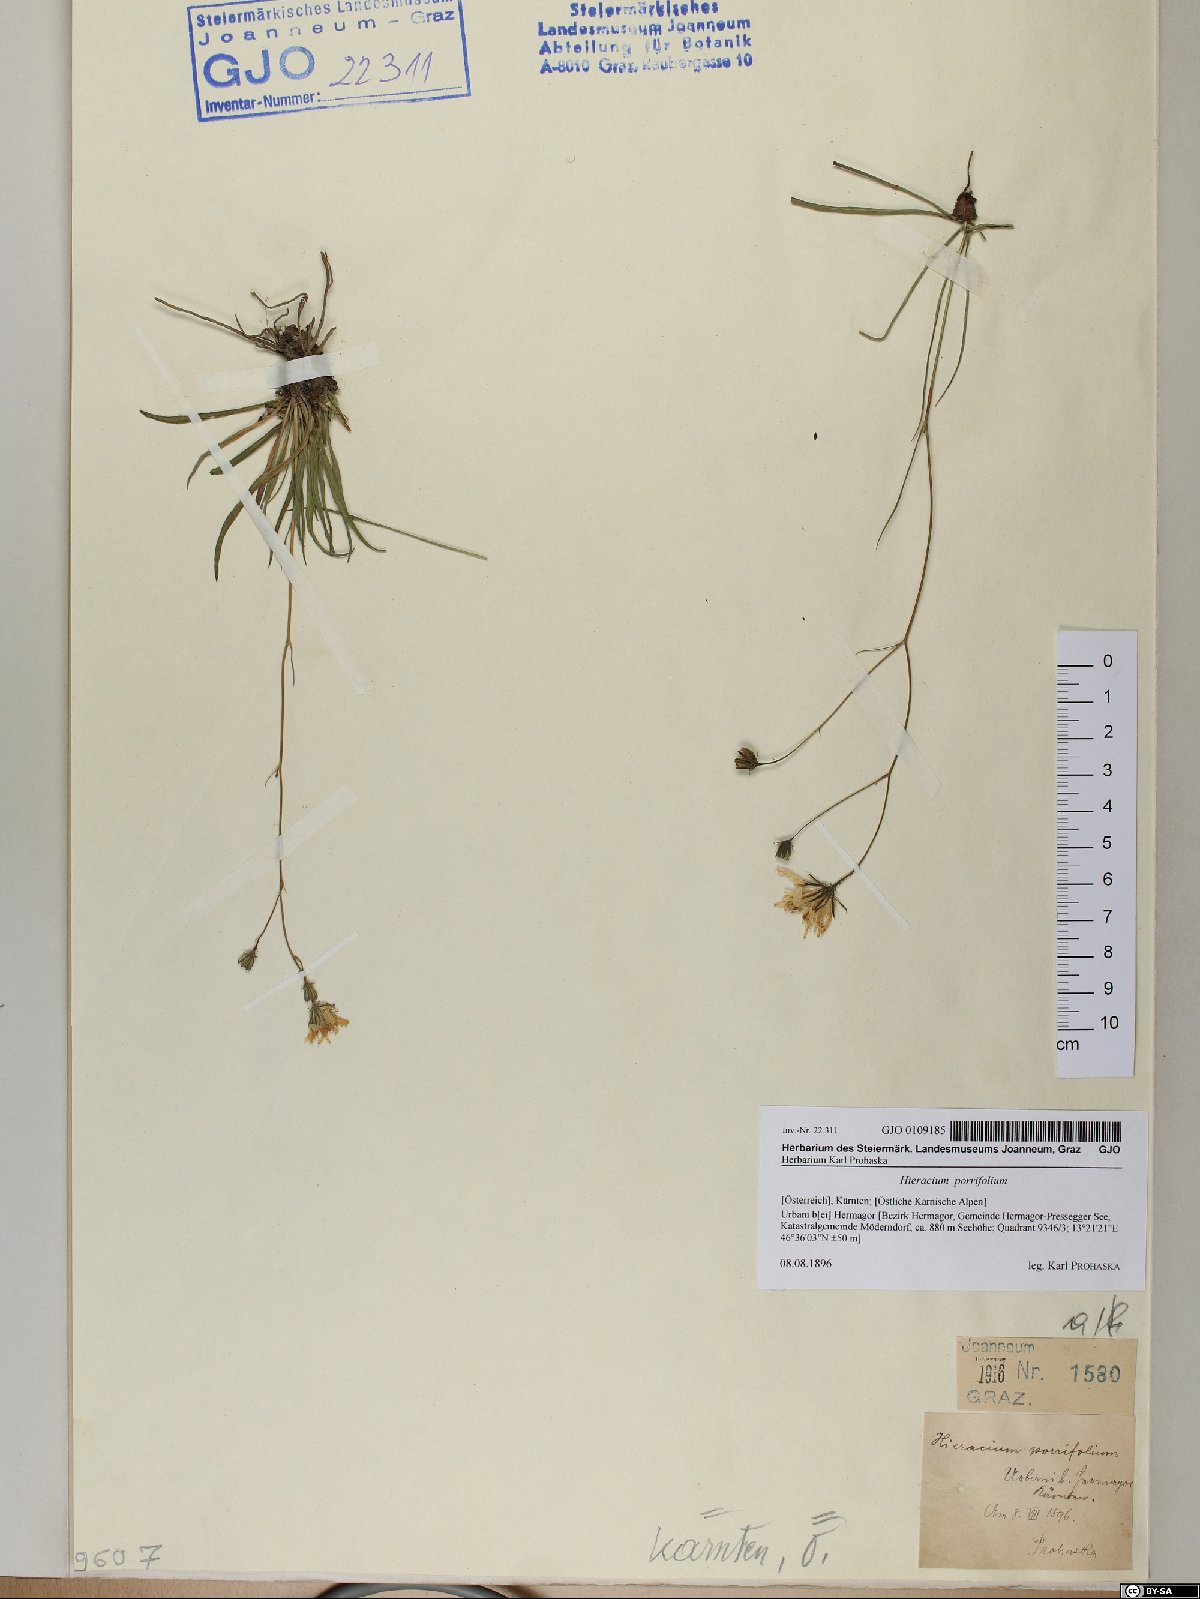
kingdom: Plantae
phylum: Tracheophyta
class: Magnoliopsida
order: Asterales
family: Asteraceae
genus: Hieracium
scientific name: Hieracium porrifolium
